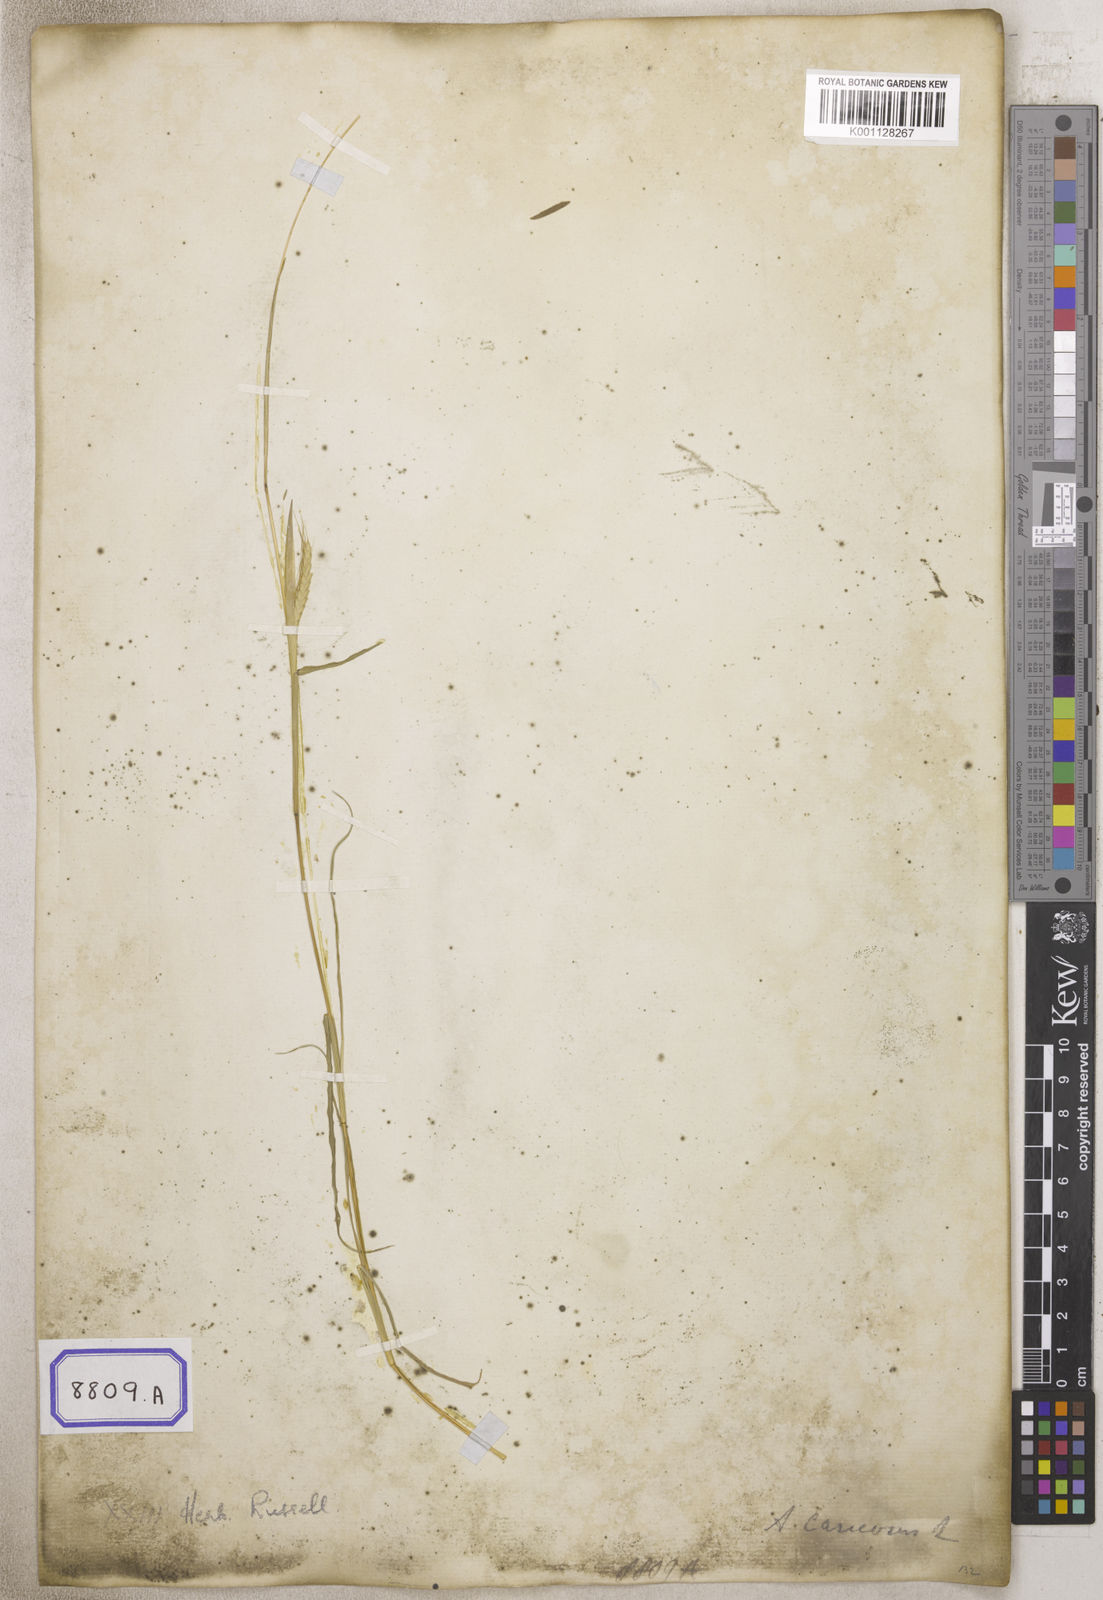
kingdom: Plantae
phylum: Tracheophyta
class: Liliopsida
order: Poales
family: Poaceae
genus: Andropogon
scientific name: Andropogon
